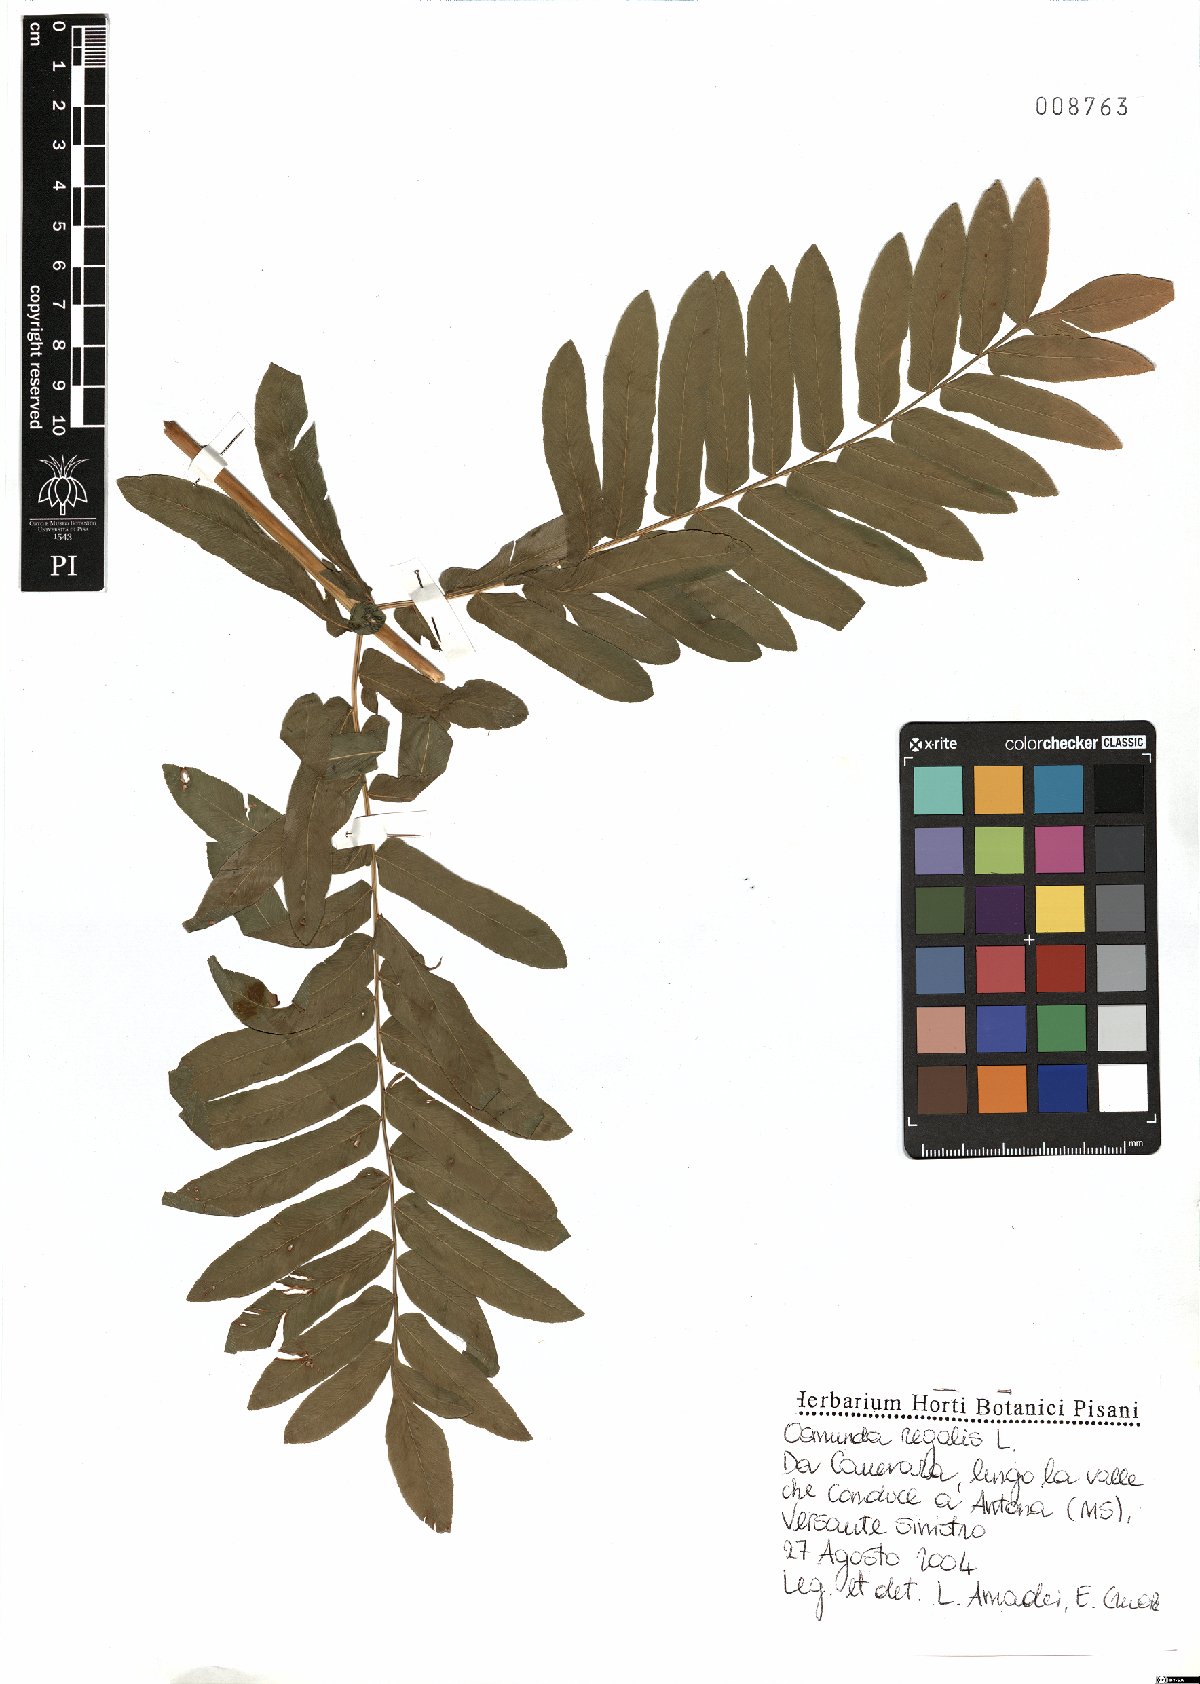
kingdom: Plantae
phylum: Tracheophyta
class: Polypodiopsida
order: Osmundales
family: Osmundaceae
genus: Osmunda
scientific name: Osmunda regalis
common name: Royal fern
